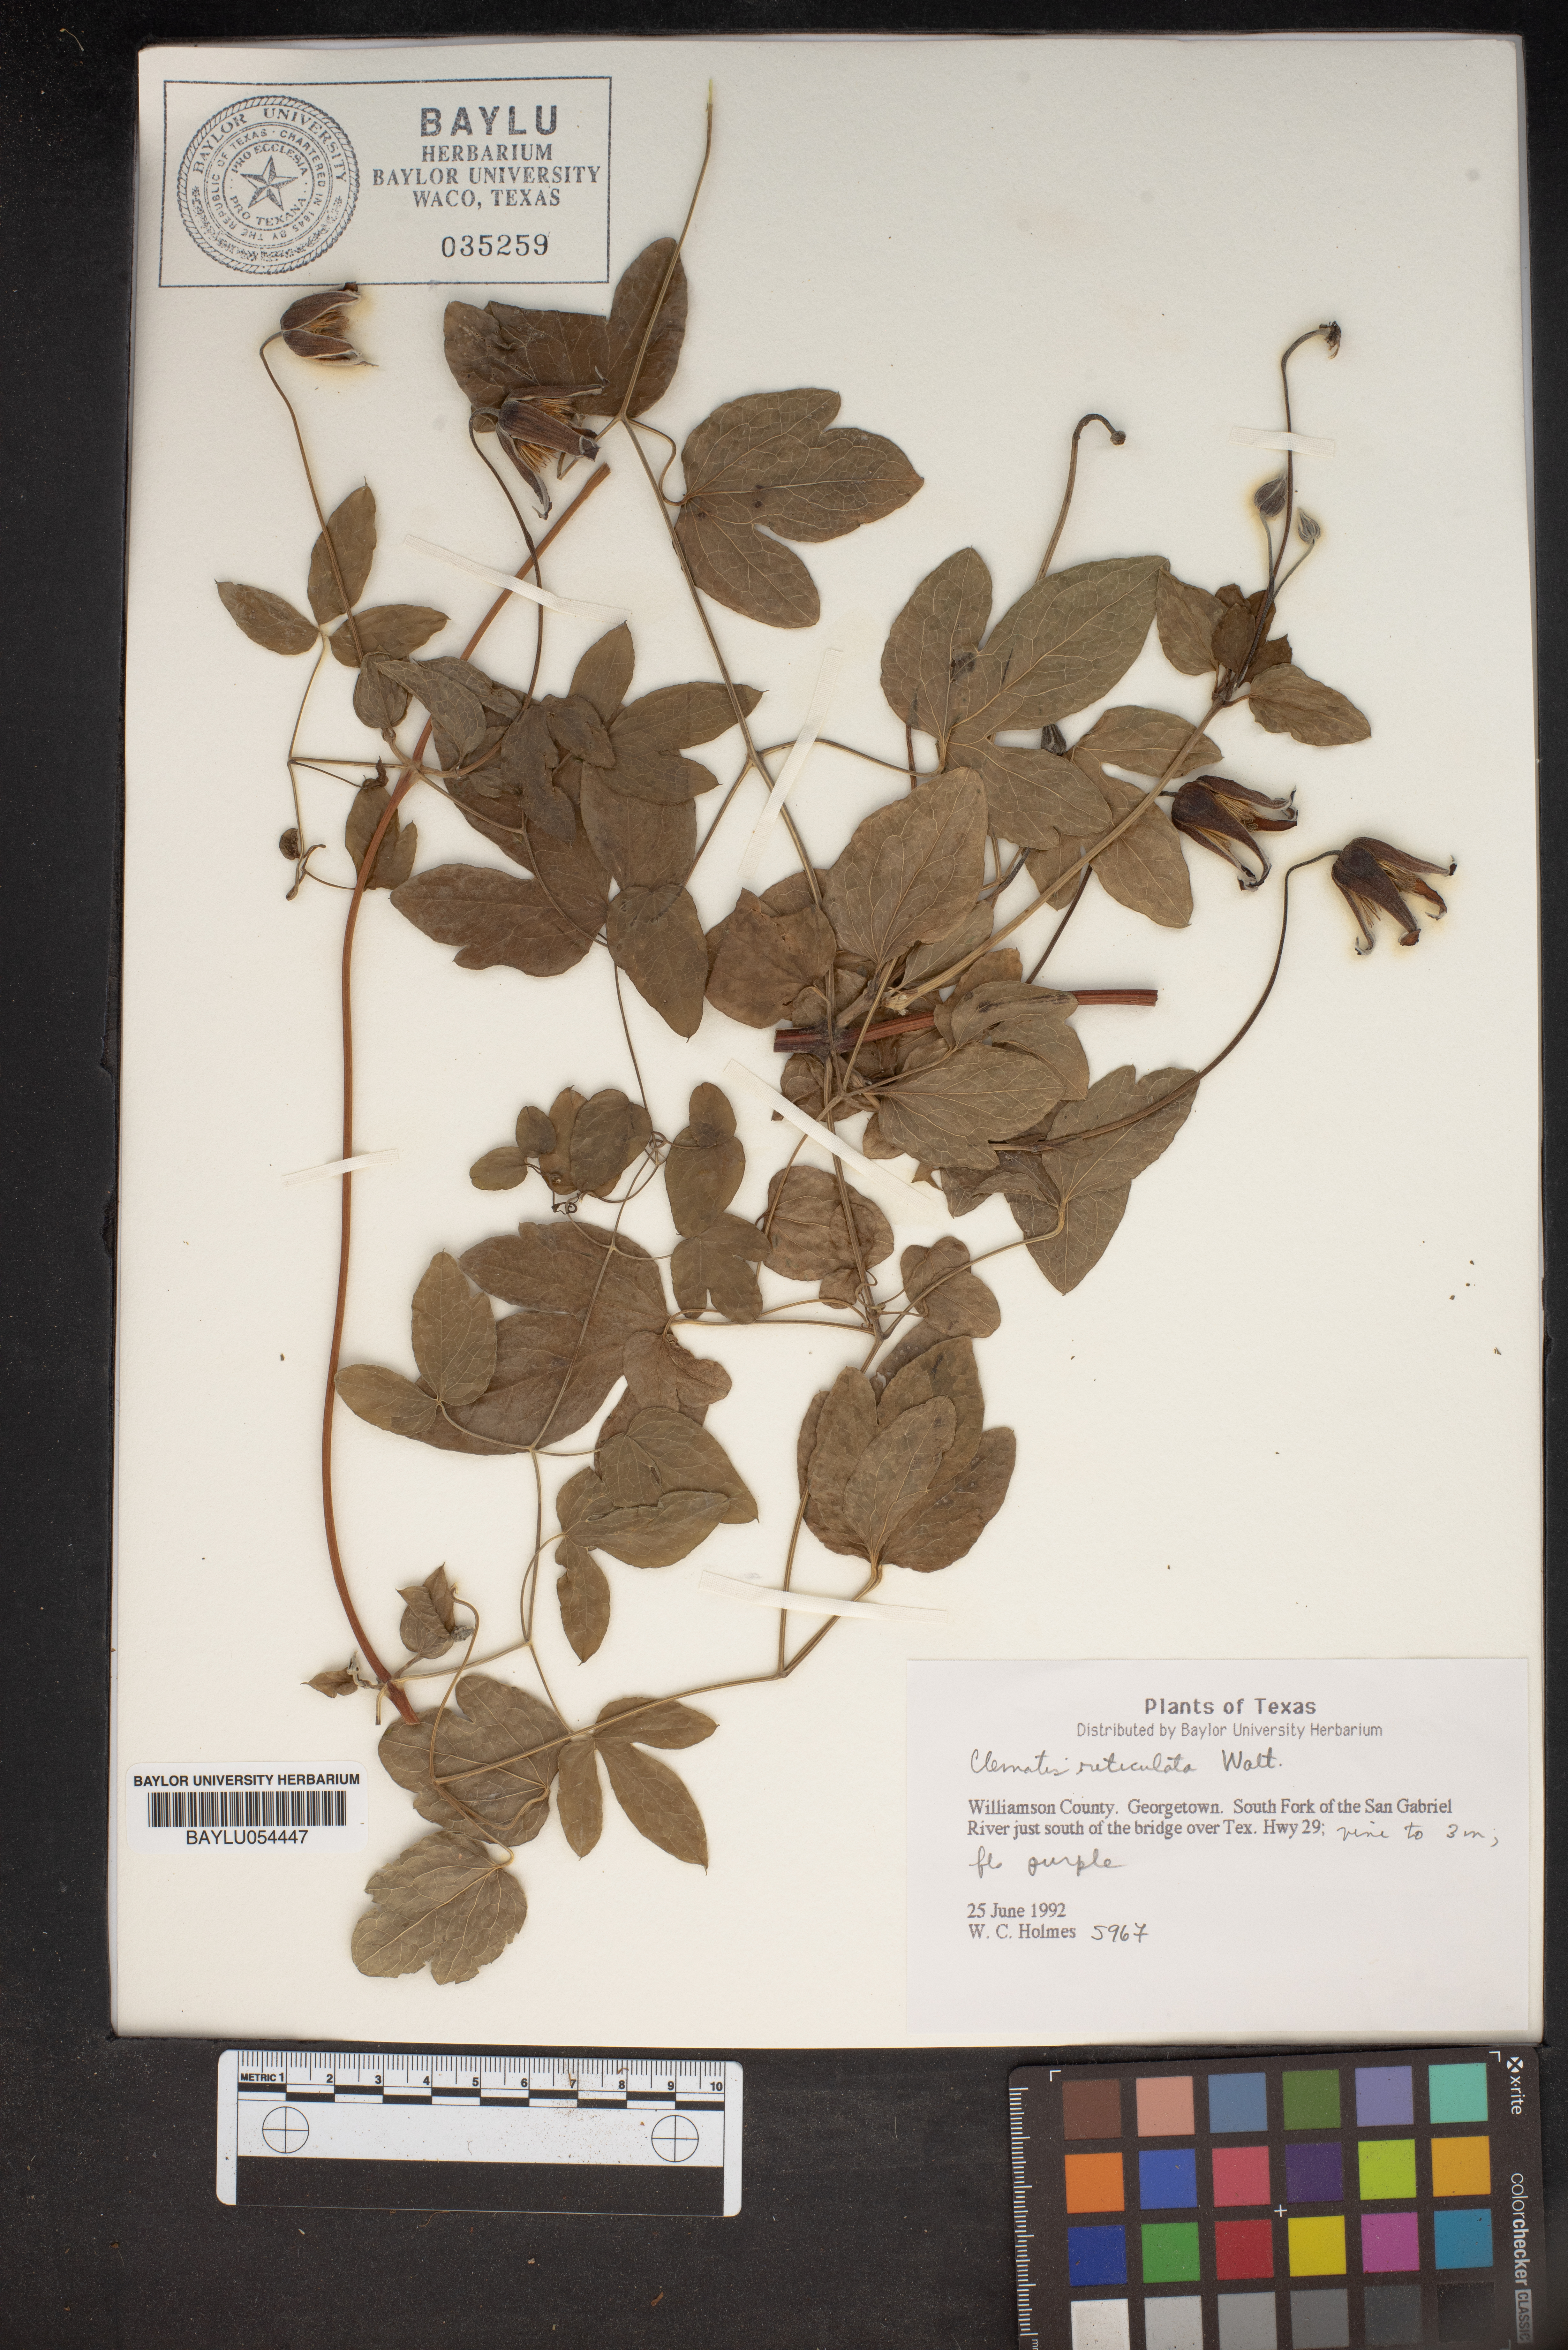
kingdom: Plantae
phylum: Tracheophyta
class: Magnoliopsida
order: Ranunculales
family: Ranunculaceae
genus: Clematis
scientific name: Clematis reticulata
